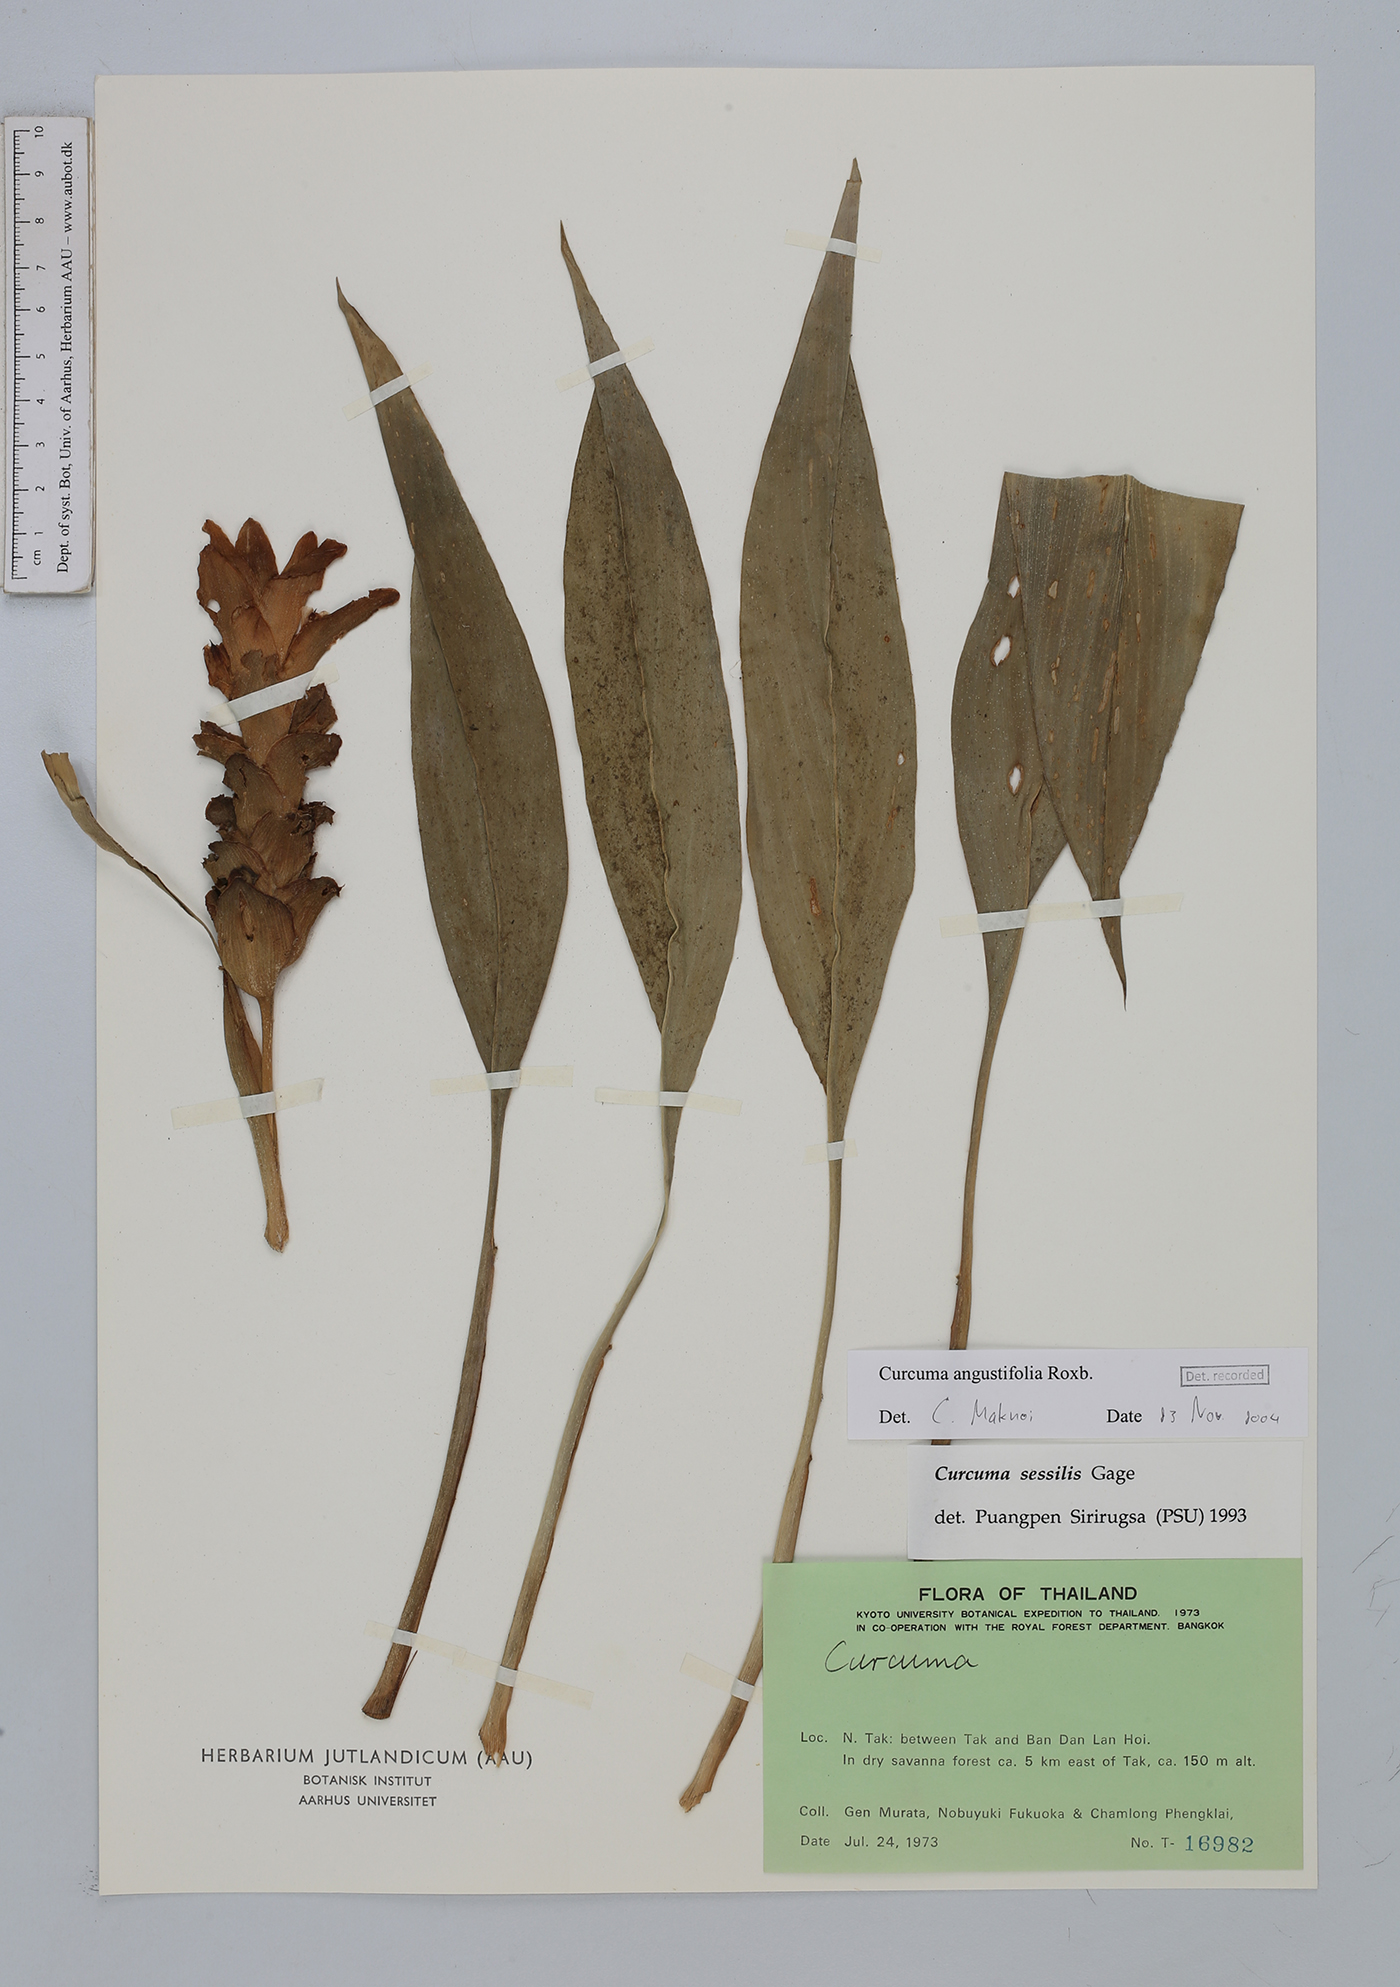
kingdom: Plantae
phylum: Tracheophyta
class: Liliopsida
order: Zingiberales
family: Zingiberaceae
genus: Curcuma
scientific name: Curcuma angustifolia
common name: East indian arrowroot
